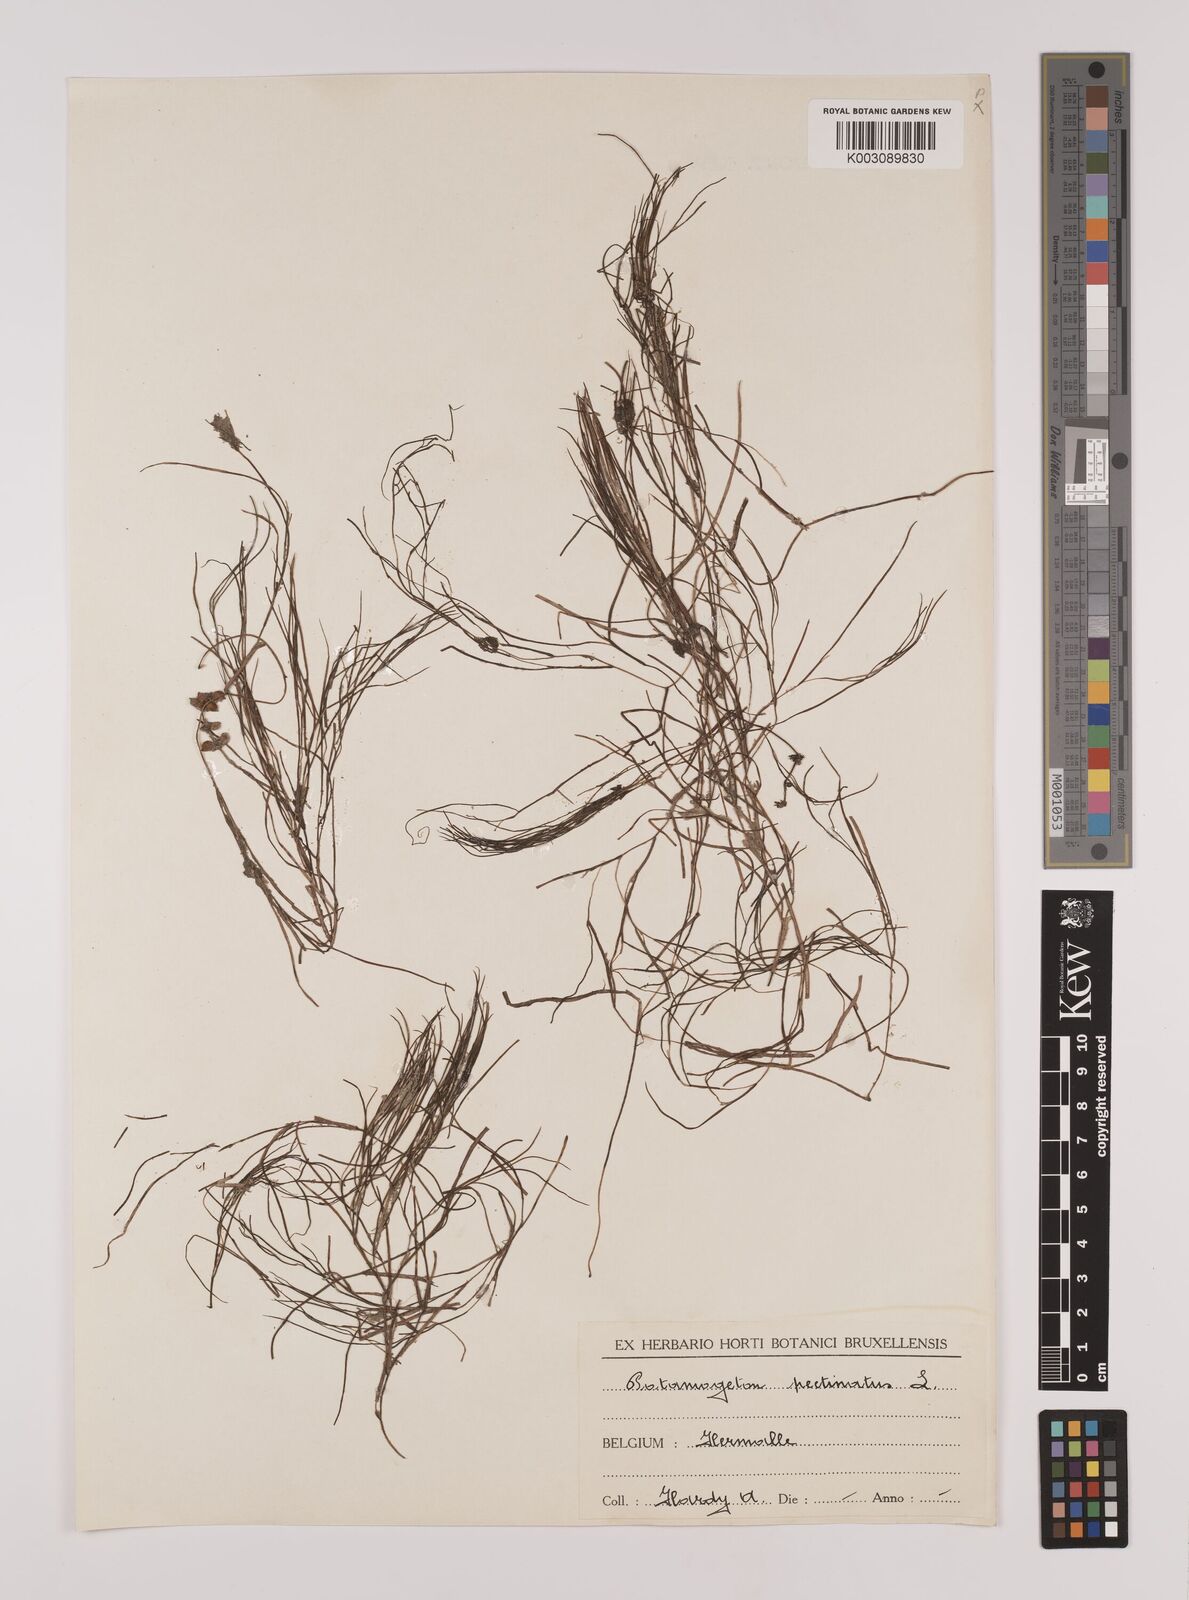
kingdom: Plantae
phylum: Tracheophyta
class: Liliopsida
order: Alismatales
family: Potamogetonaceae
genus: Stuckenia
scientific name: Stuckenia pectinata
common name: Sago pondweed
